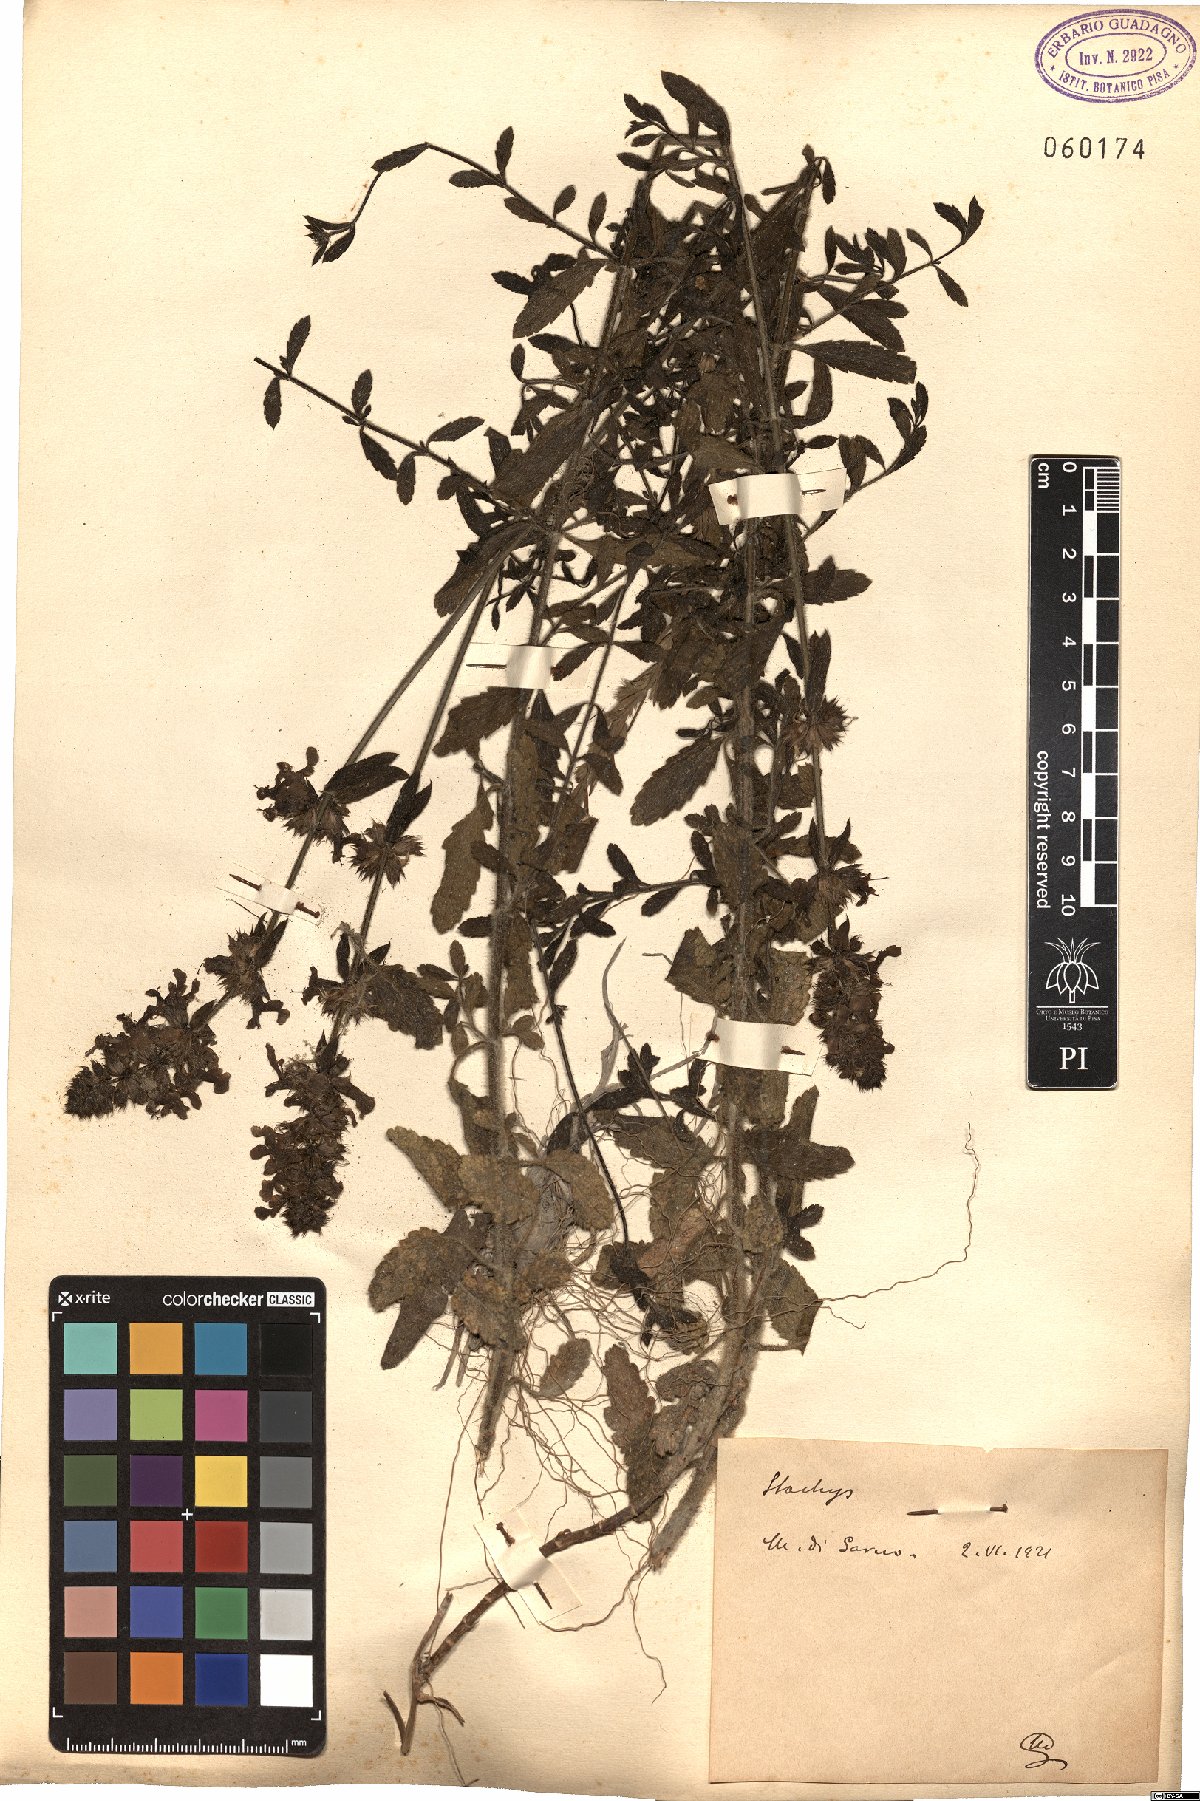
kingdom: Plantae
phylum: Tracheophyta
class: Magnoliopsida
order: Lamiales
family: Lamiaceae
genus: Stachys
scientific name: Stachys
